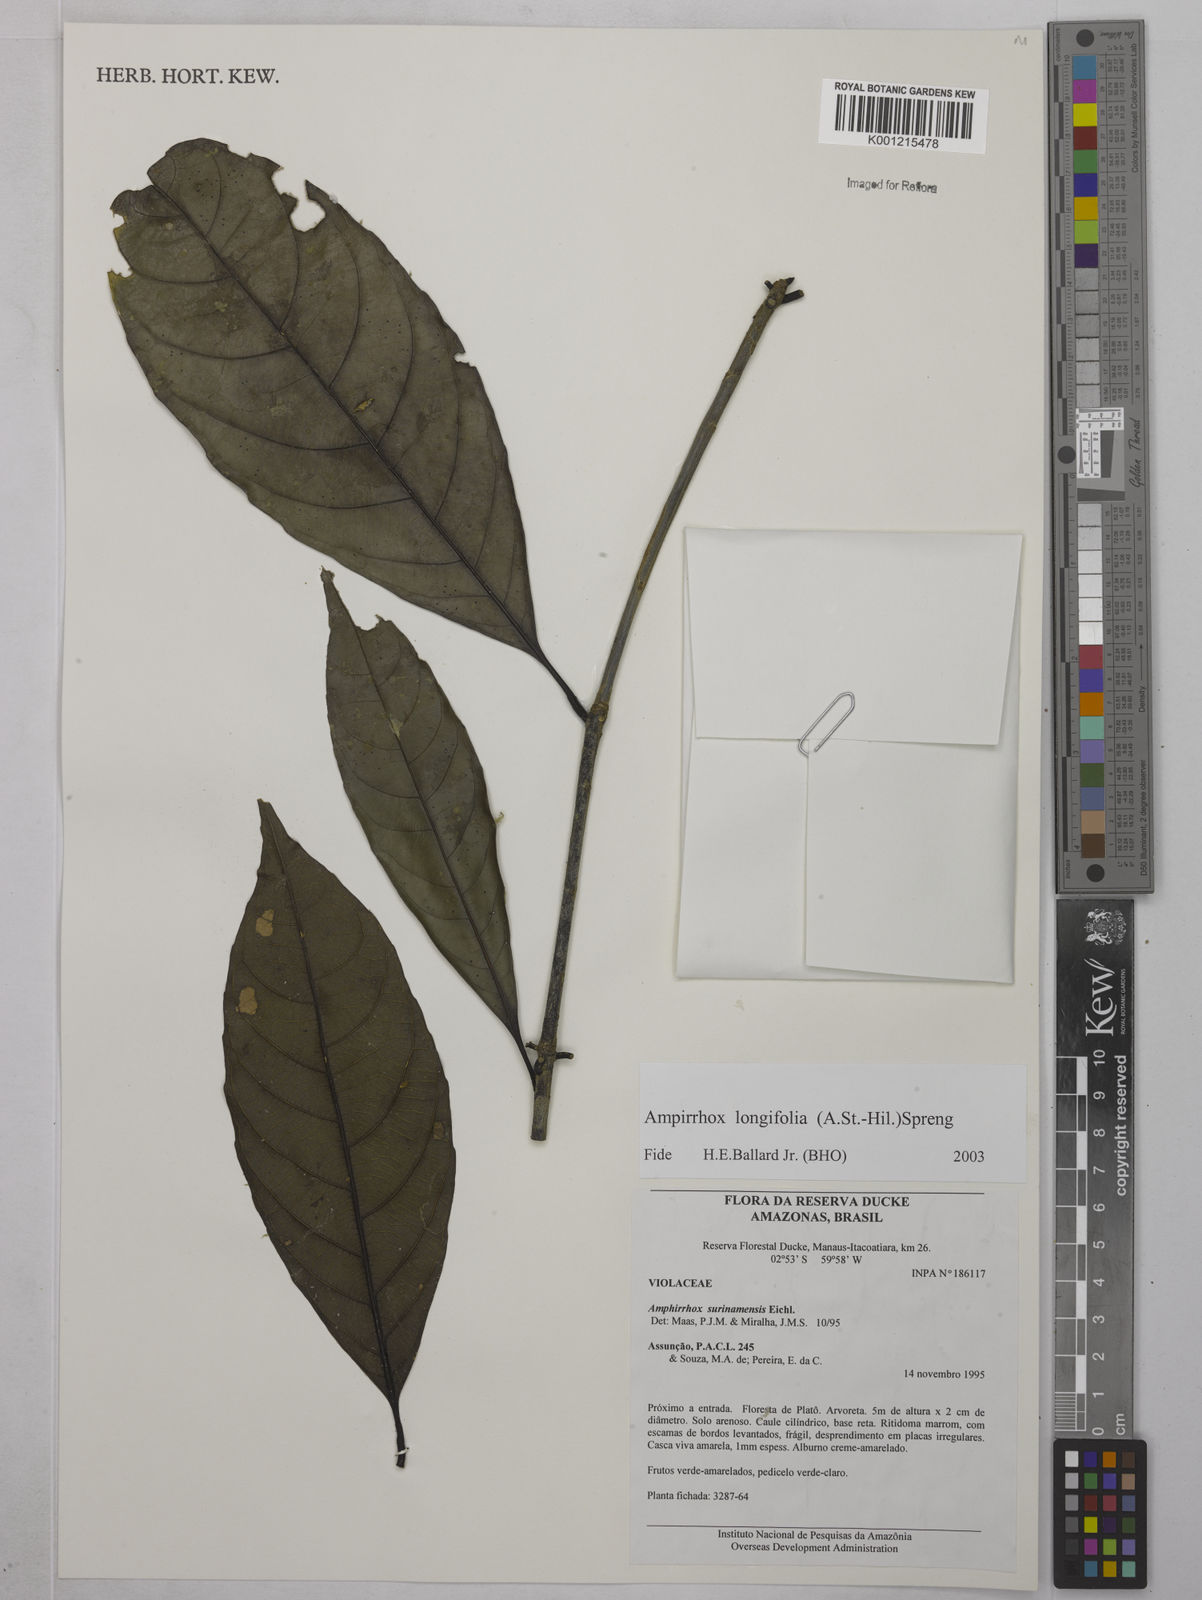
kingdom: Plantae
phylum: Tracheophyta
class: Magnoliopsida
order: Malpighiales
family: Violaceae
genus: Amphirrhox
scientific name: Amphirrhox longifolia
